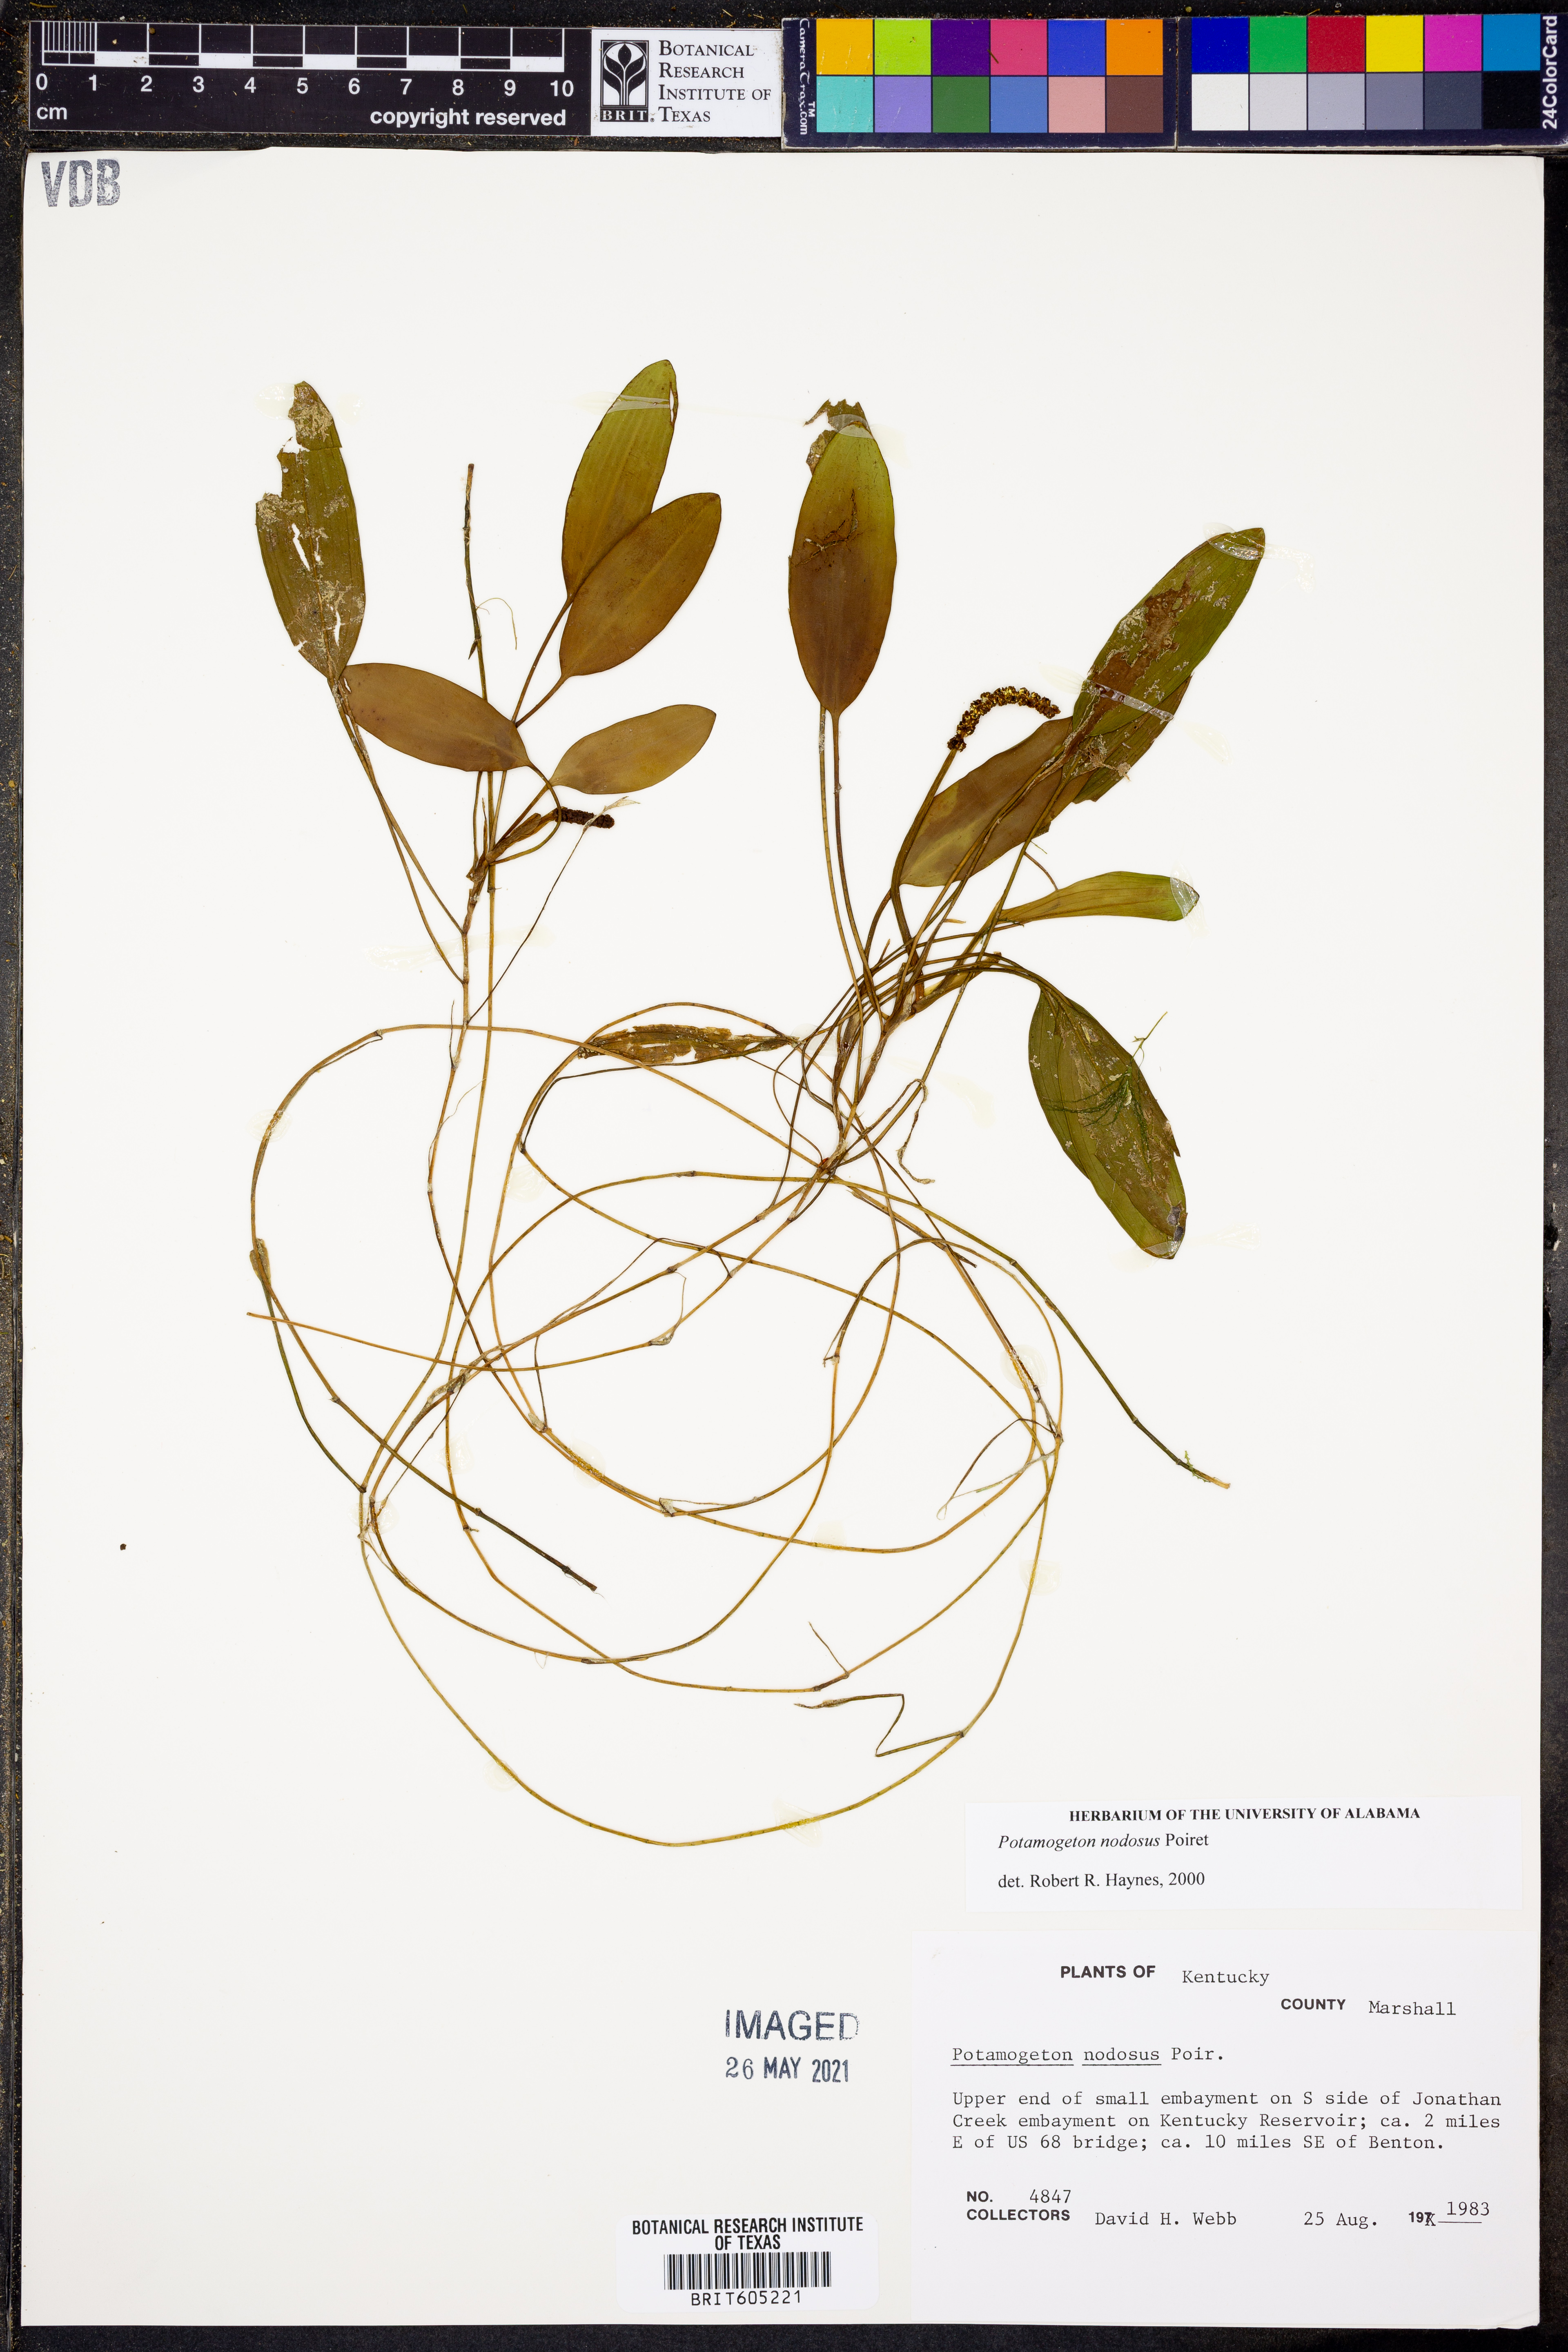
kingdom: Plantae
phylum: Tracheophyta
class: Liliopsida
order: Alismatales
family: Potamogetonaceae
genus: Potamogeton
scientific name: Potamogeton nodosus
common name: Loddon pondweed
